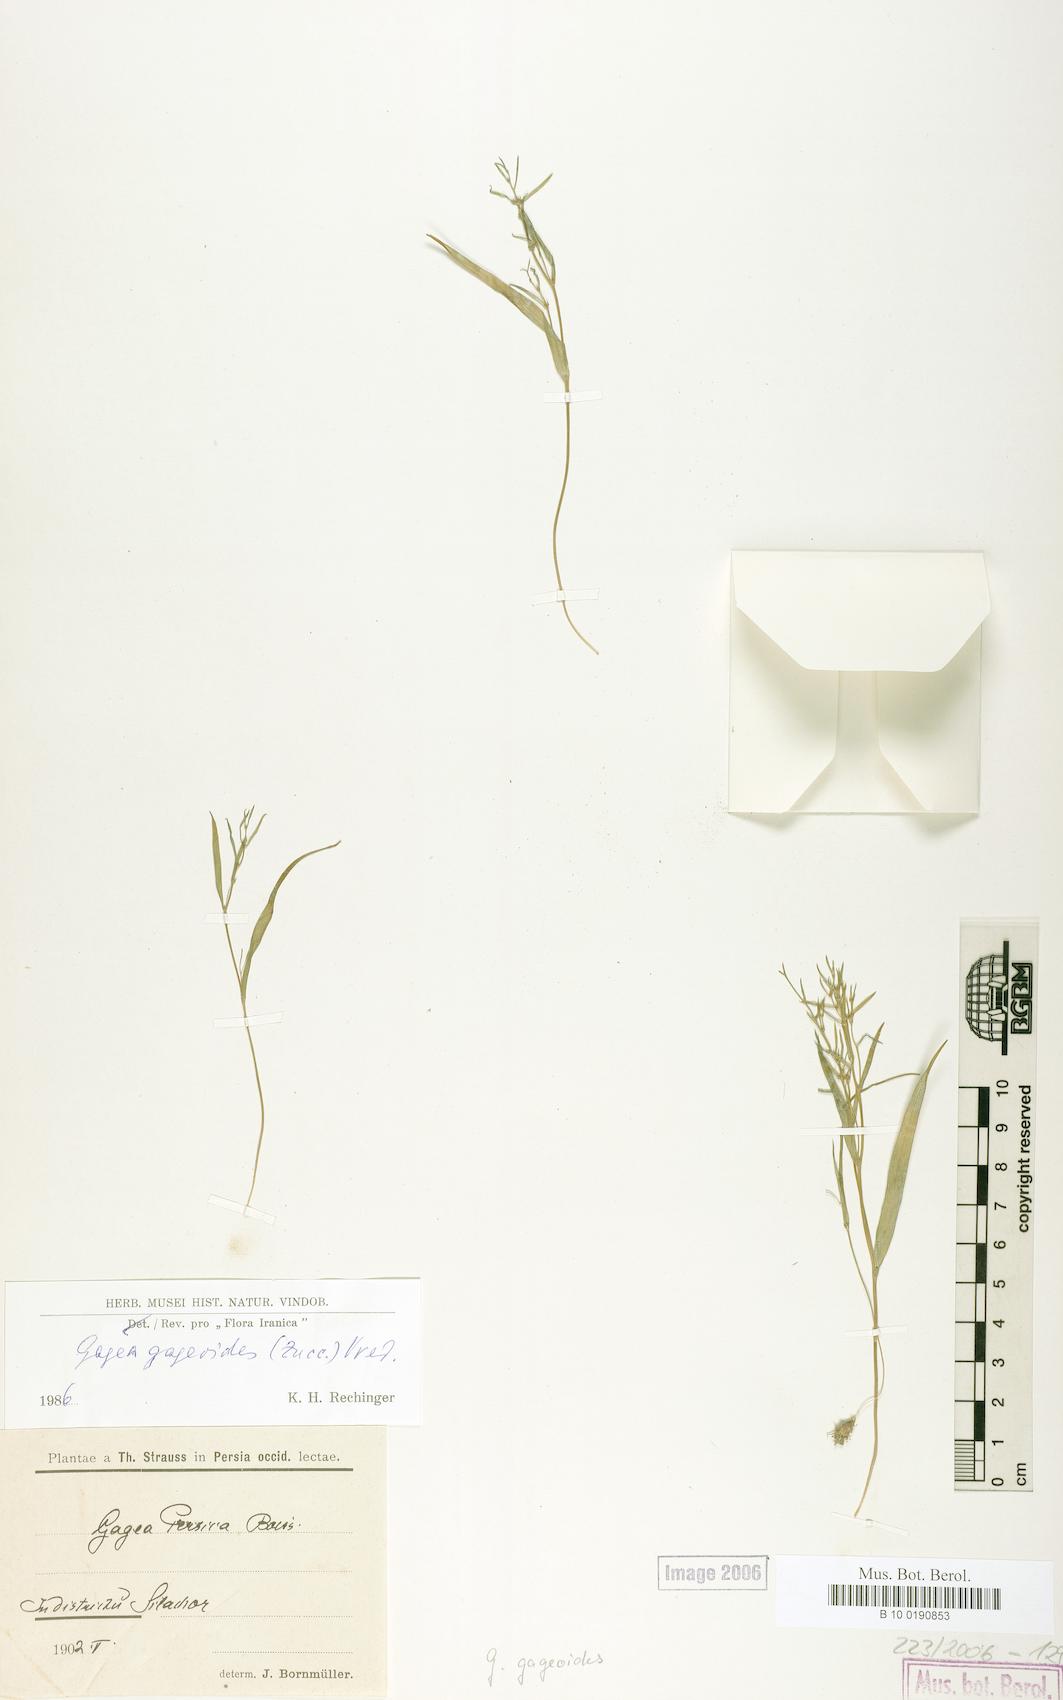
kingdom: Plantae
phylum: Tracheophyta
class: Liliopsida
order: Liliales
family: Liliaceae
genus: Gagea
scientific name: Gagea gageoides
